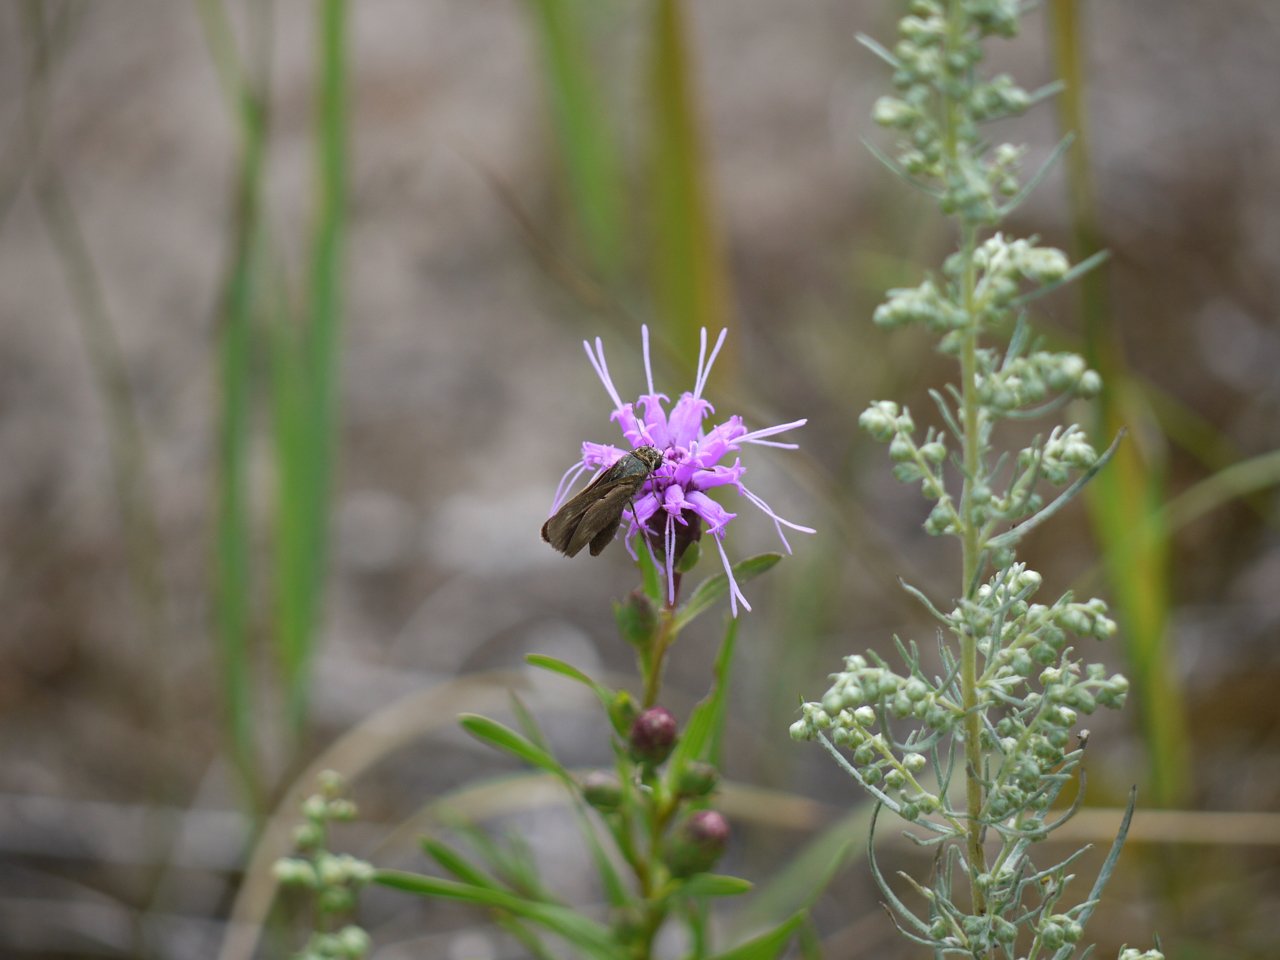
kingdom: Animalia
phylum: Arthropoda
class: Insecta
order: Lepidoptera
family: Hesperiidae
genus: Euphyes
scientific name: Euphyes vestris
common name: Dun Skipper
